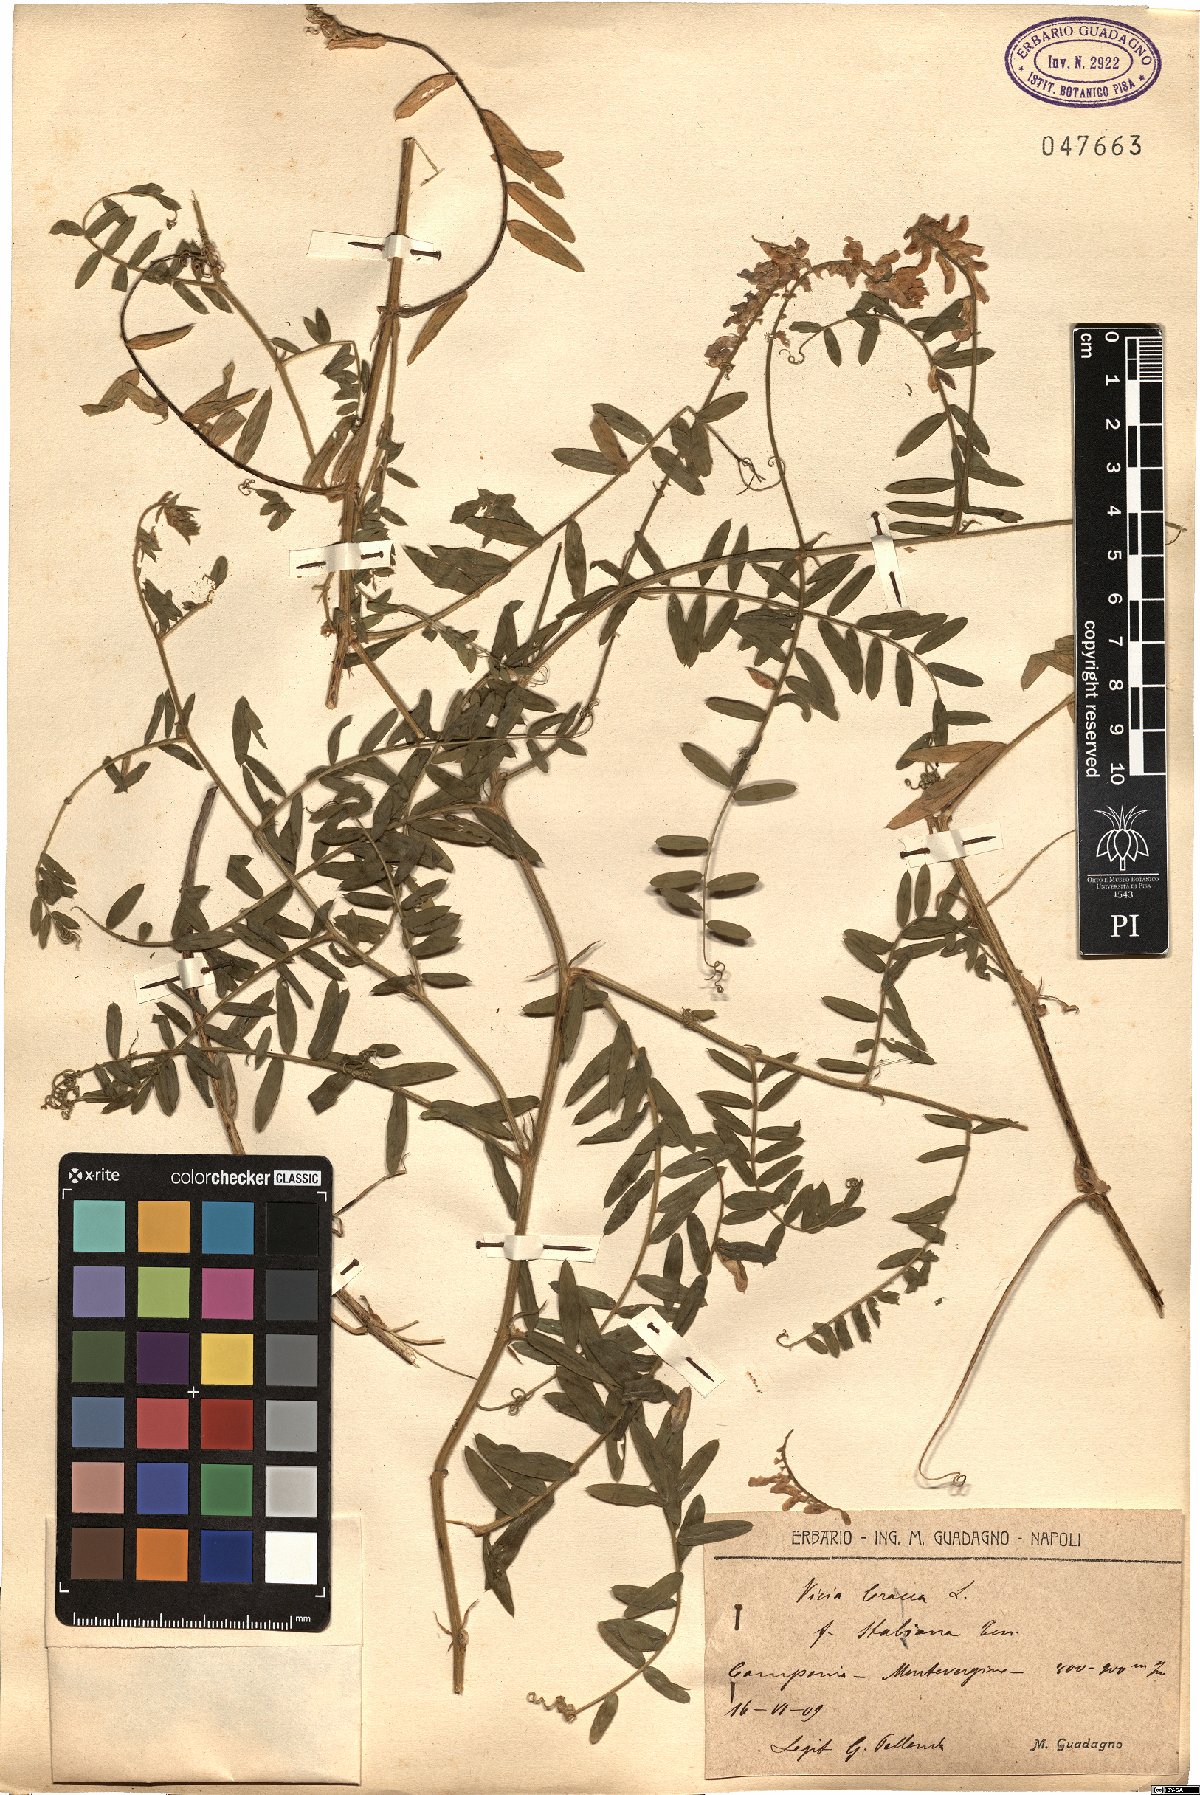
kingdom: Plantae
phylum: Tracheophyta
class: Magnoliopsida
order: Fabales
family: Fabaceae
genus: Vicia
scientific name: Vicia cracca
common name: Bird vetch
